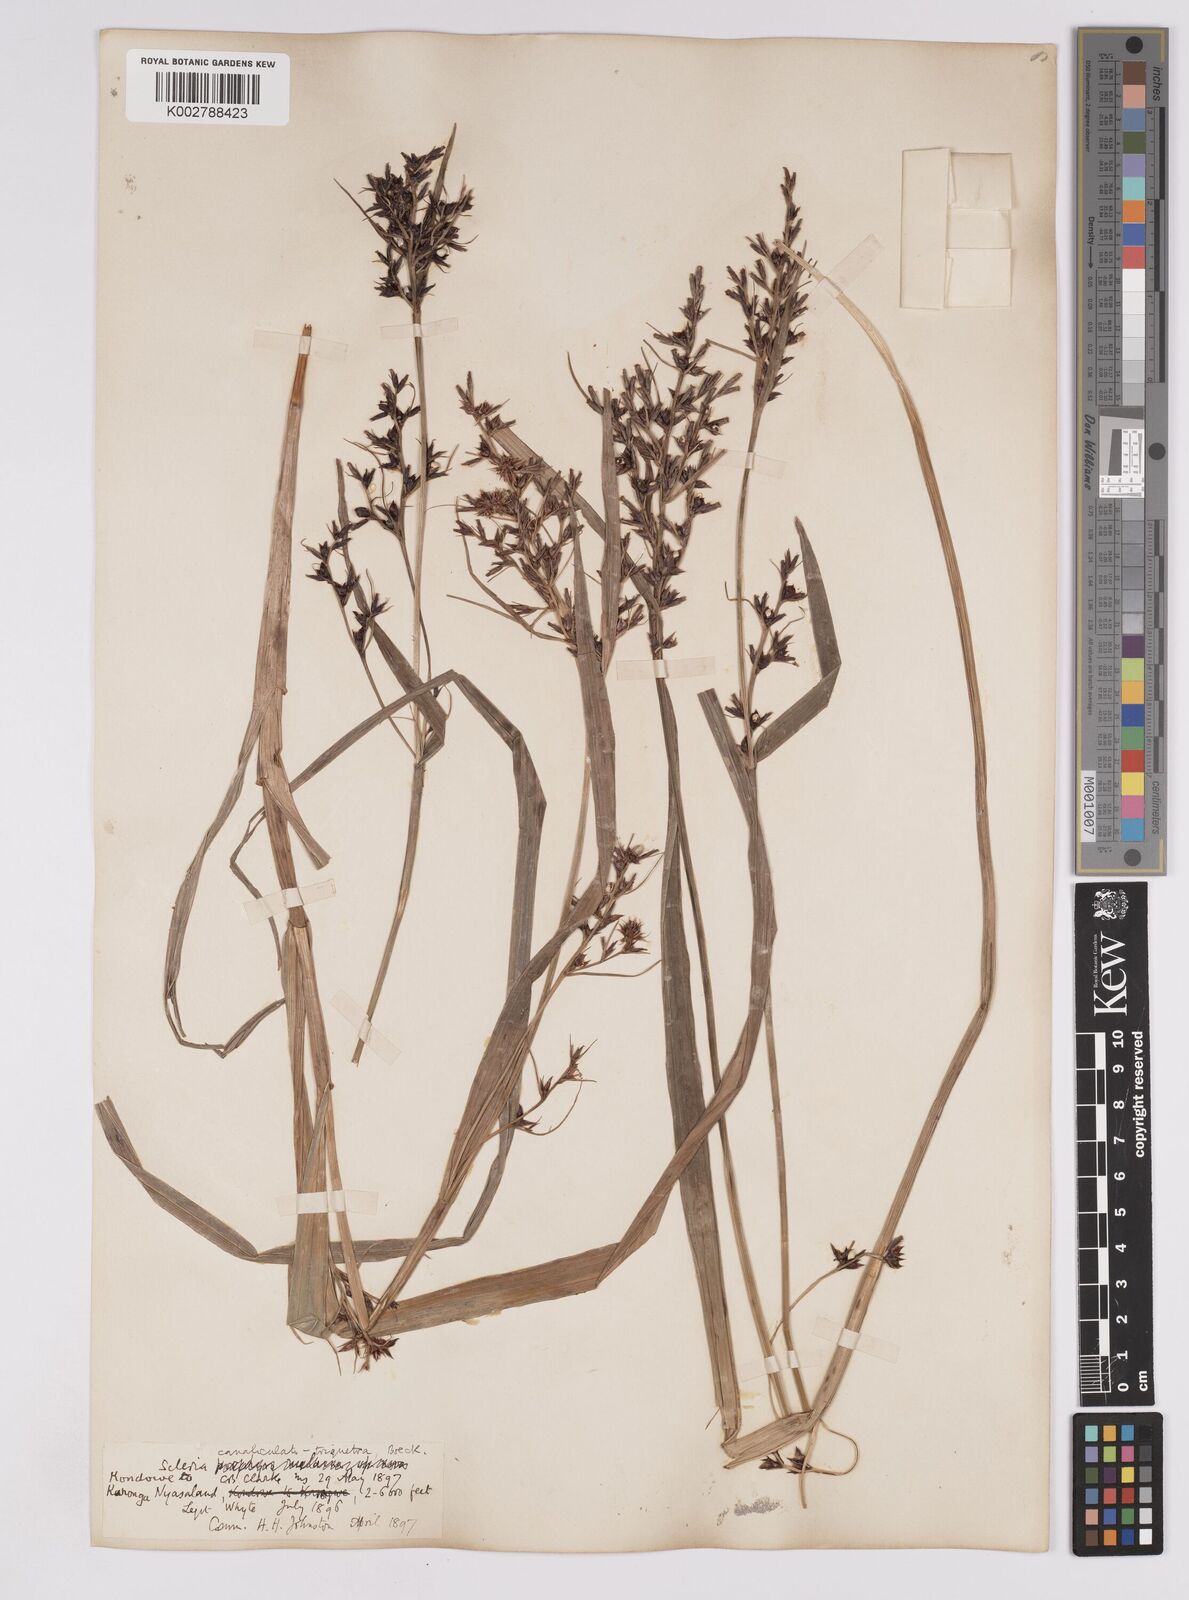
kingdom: Plantae
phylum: Tracheophyta
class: Liliopsida
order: Poales
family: Cyperaceae
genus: Scleria
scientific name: Scleria lagoensis
